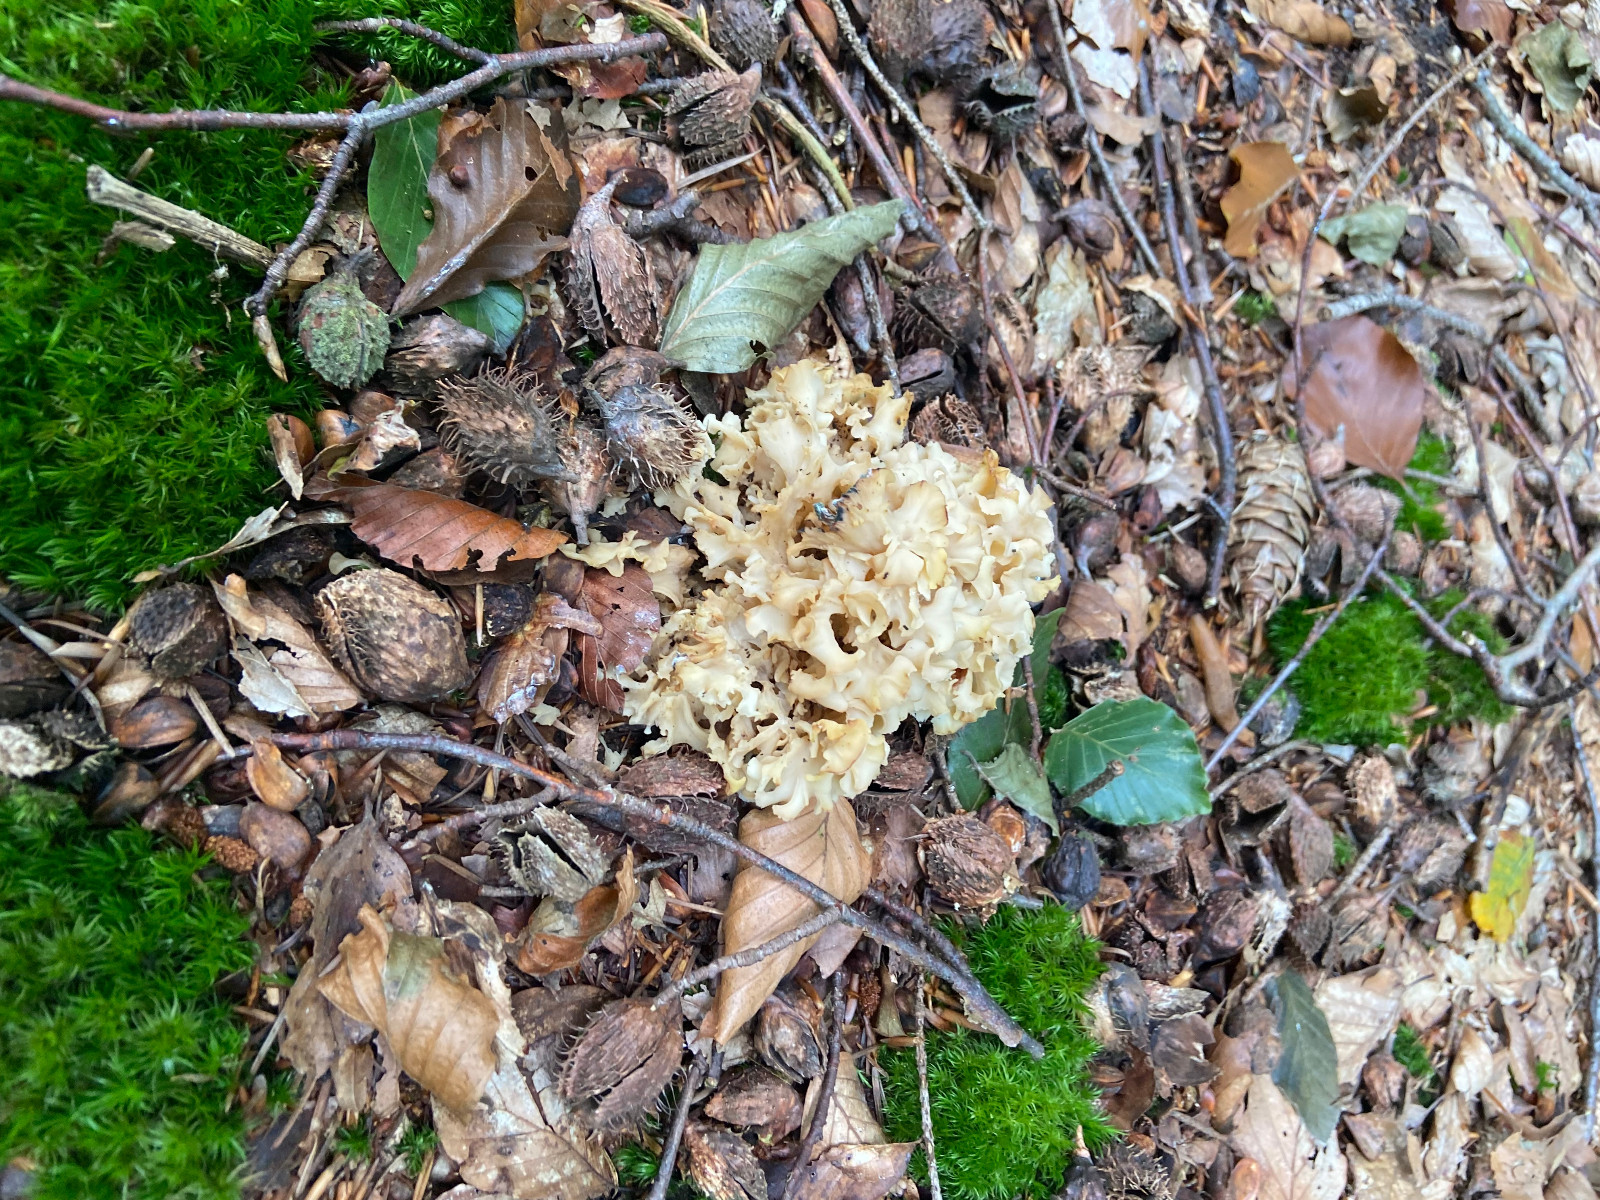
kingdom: Fungi
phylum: Basidiomycota
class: Agaricomycetes
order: Polyporales
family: Sparassidaceae
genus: Sparassis
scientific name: Sparassis crispa
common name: kruset blomkålssvamp
